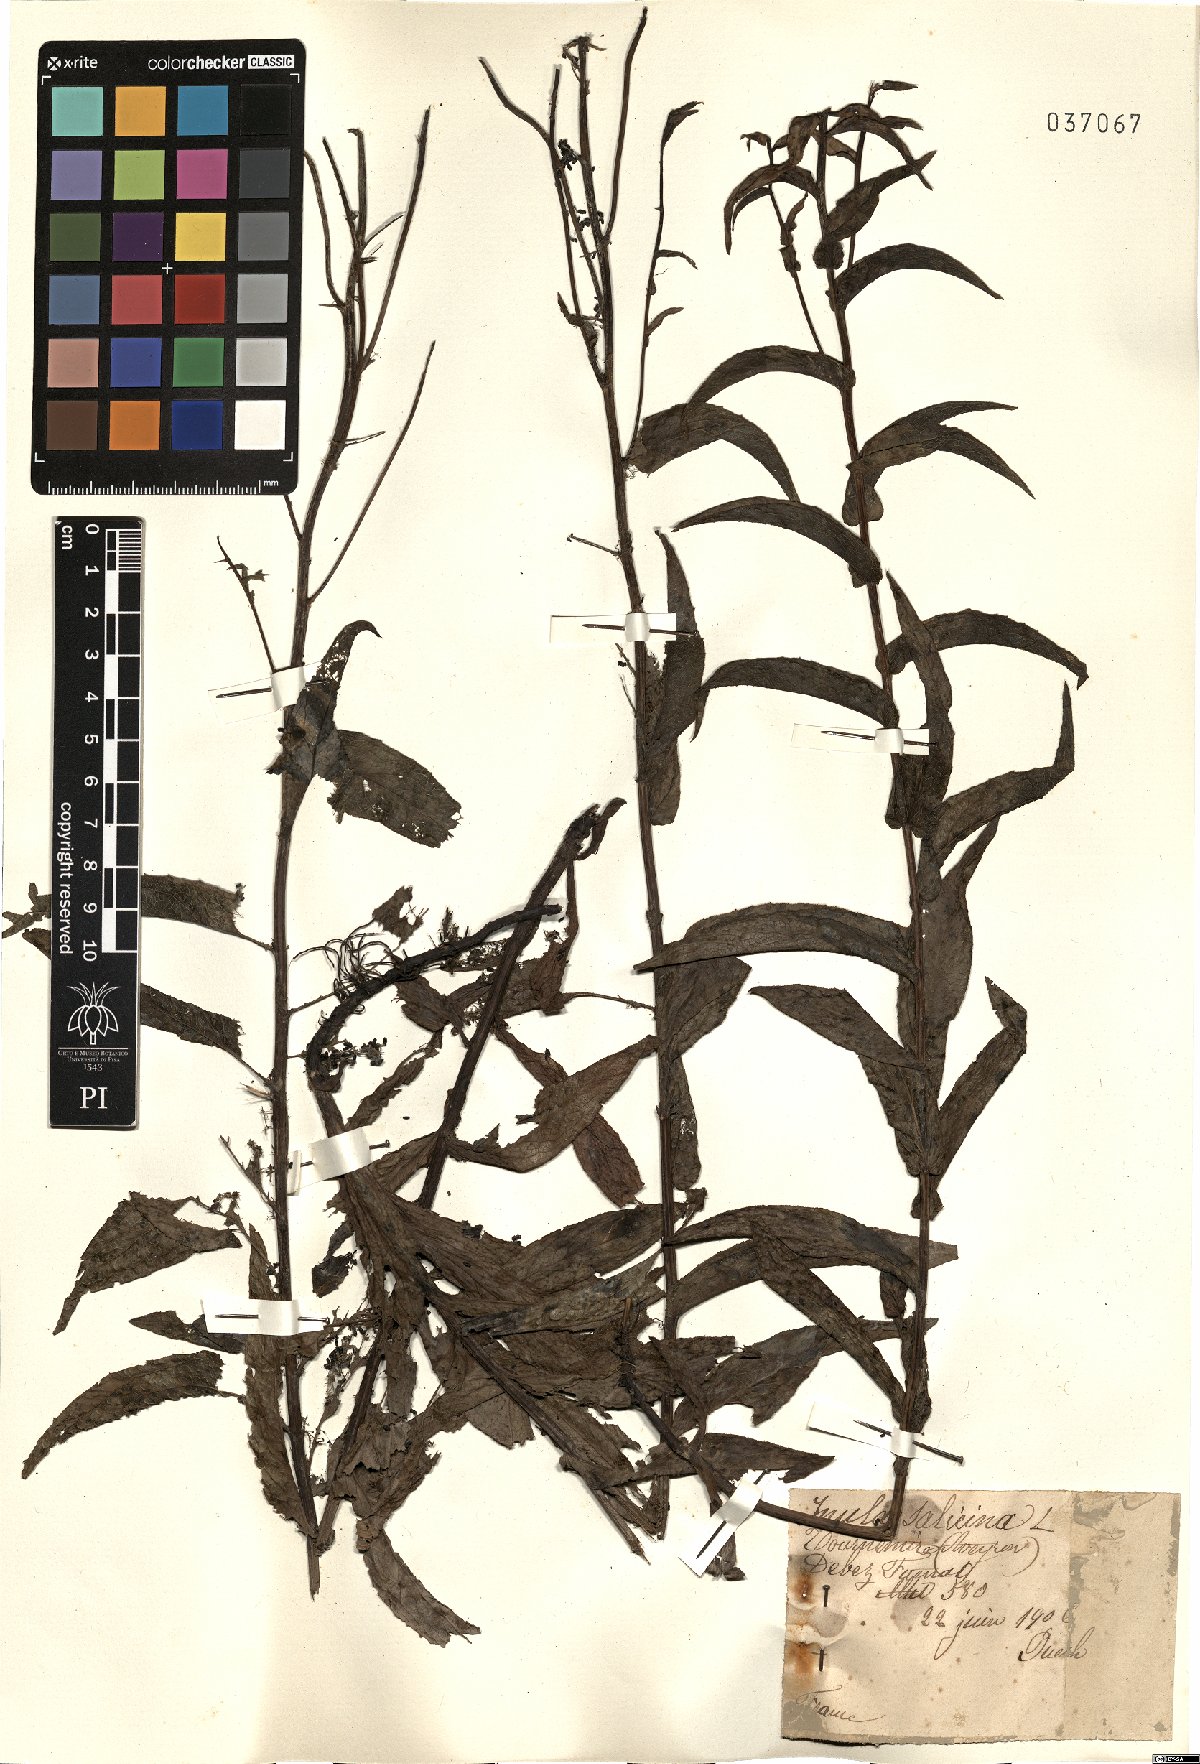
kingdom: Plantae
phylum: Tracheophyta
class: Magnoliopsida
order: Asterales
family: Asteraceae
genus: Pentanema
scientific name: Pentanema salicinum
